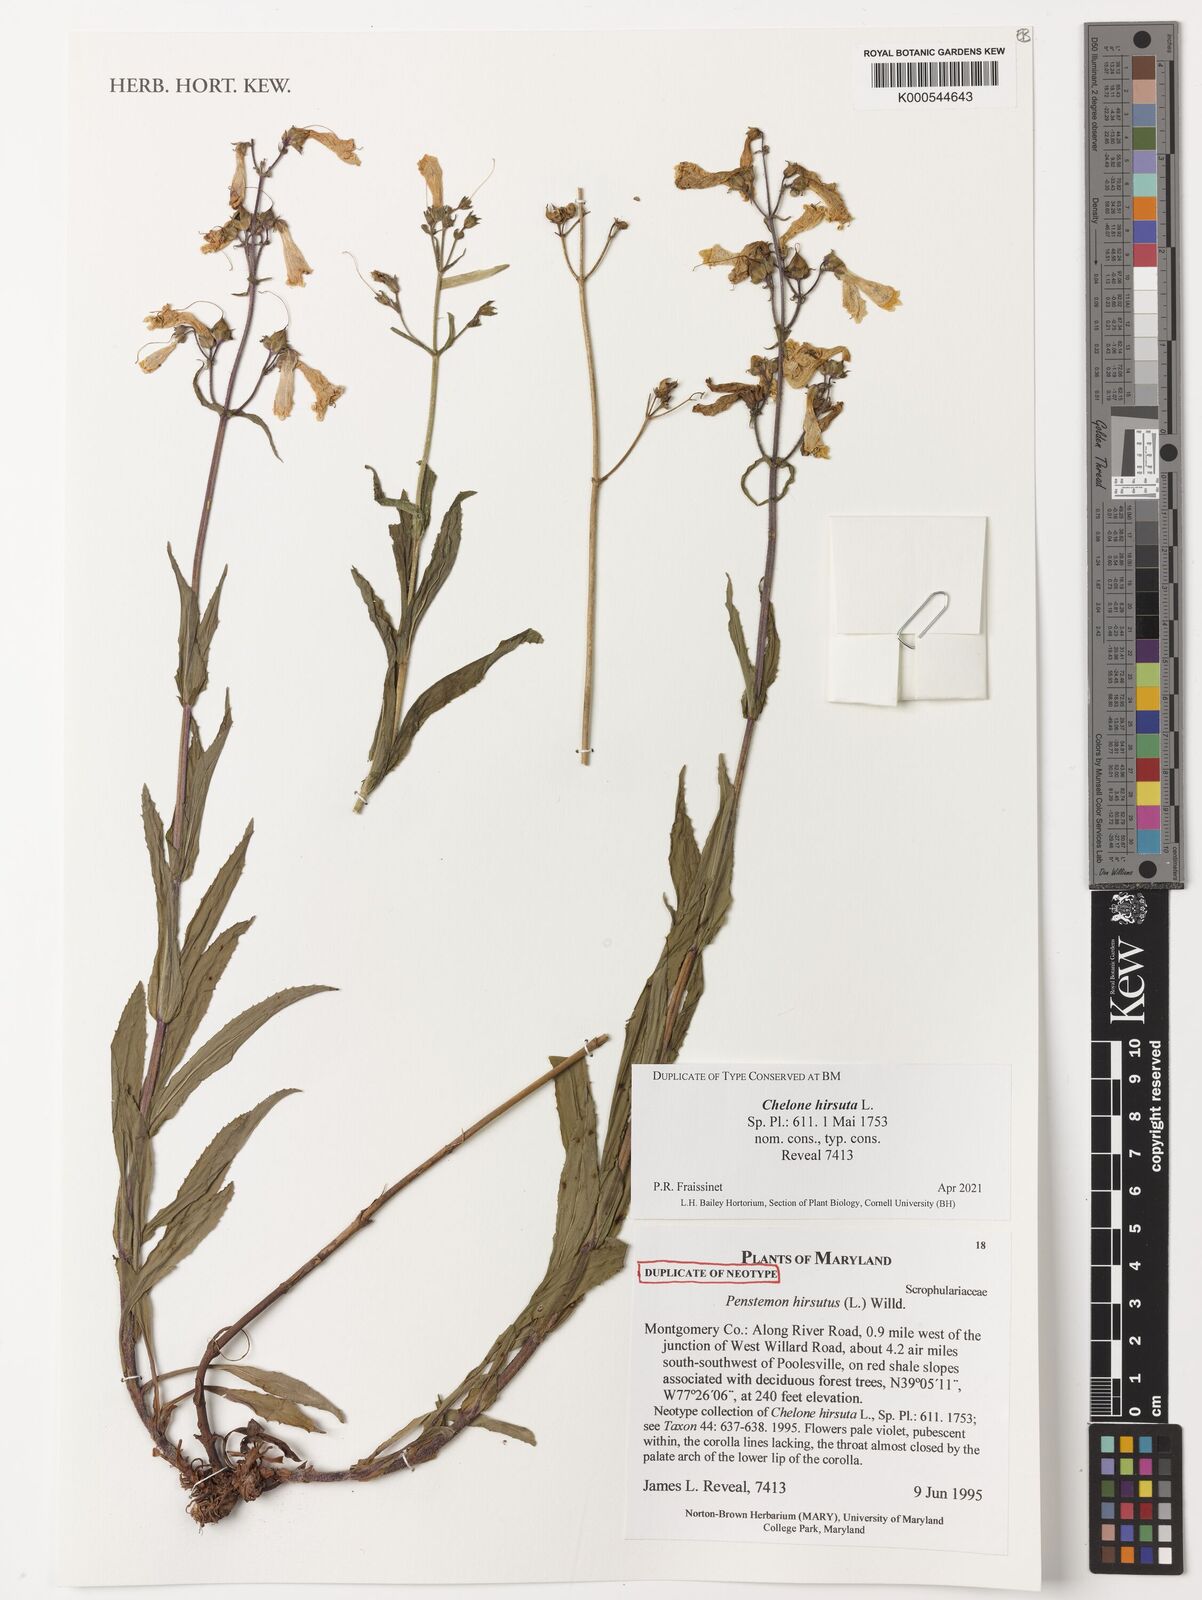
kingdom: Plantae
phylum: Tracheophyta
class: Magnoliopsida
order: Lamiales
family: Plantaginaceae
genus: Penstemon
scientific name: Penstemon hirsutus
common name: Hairy beardtongue
